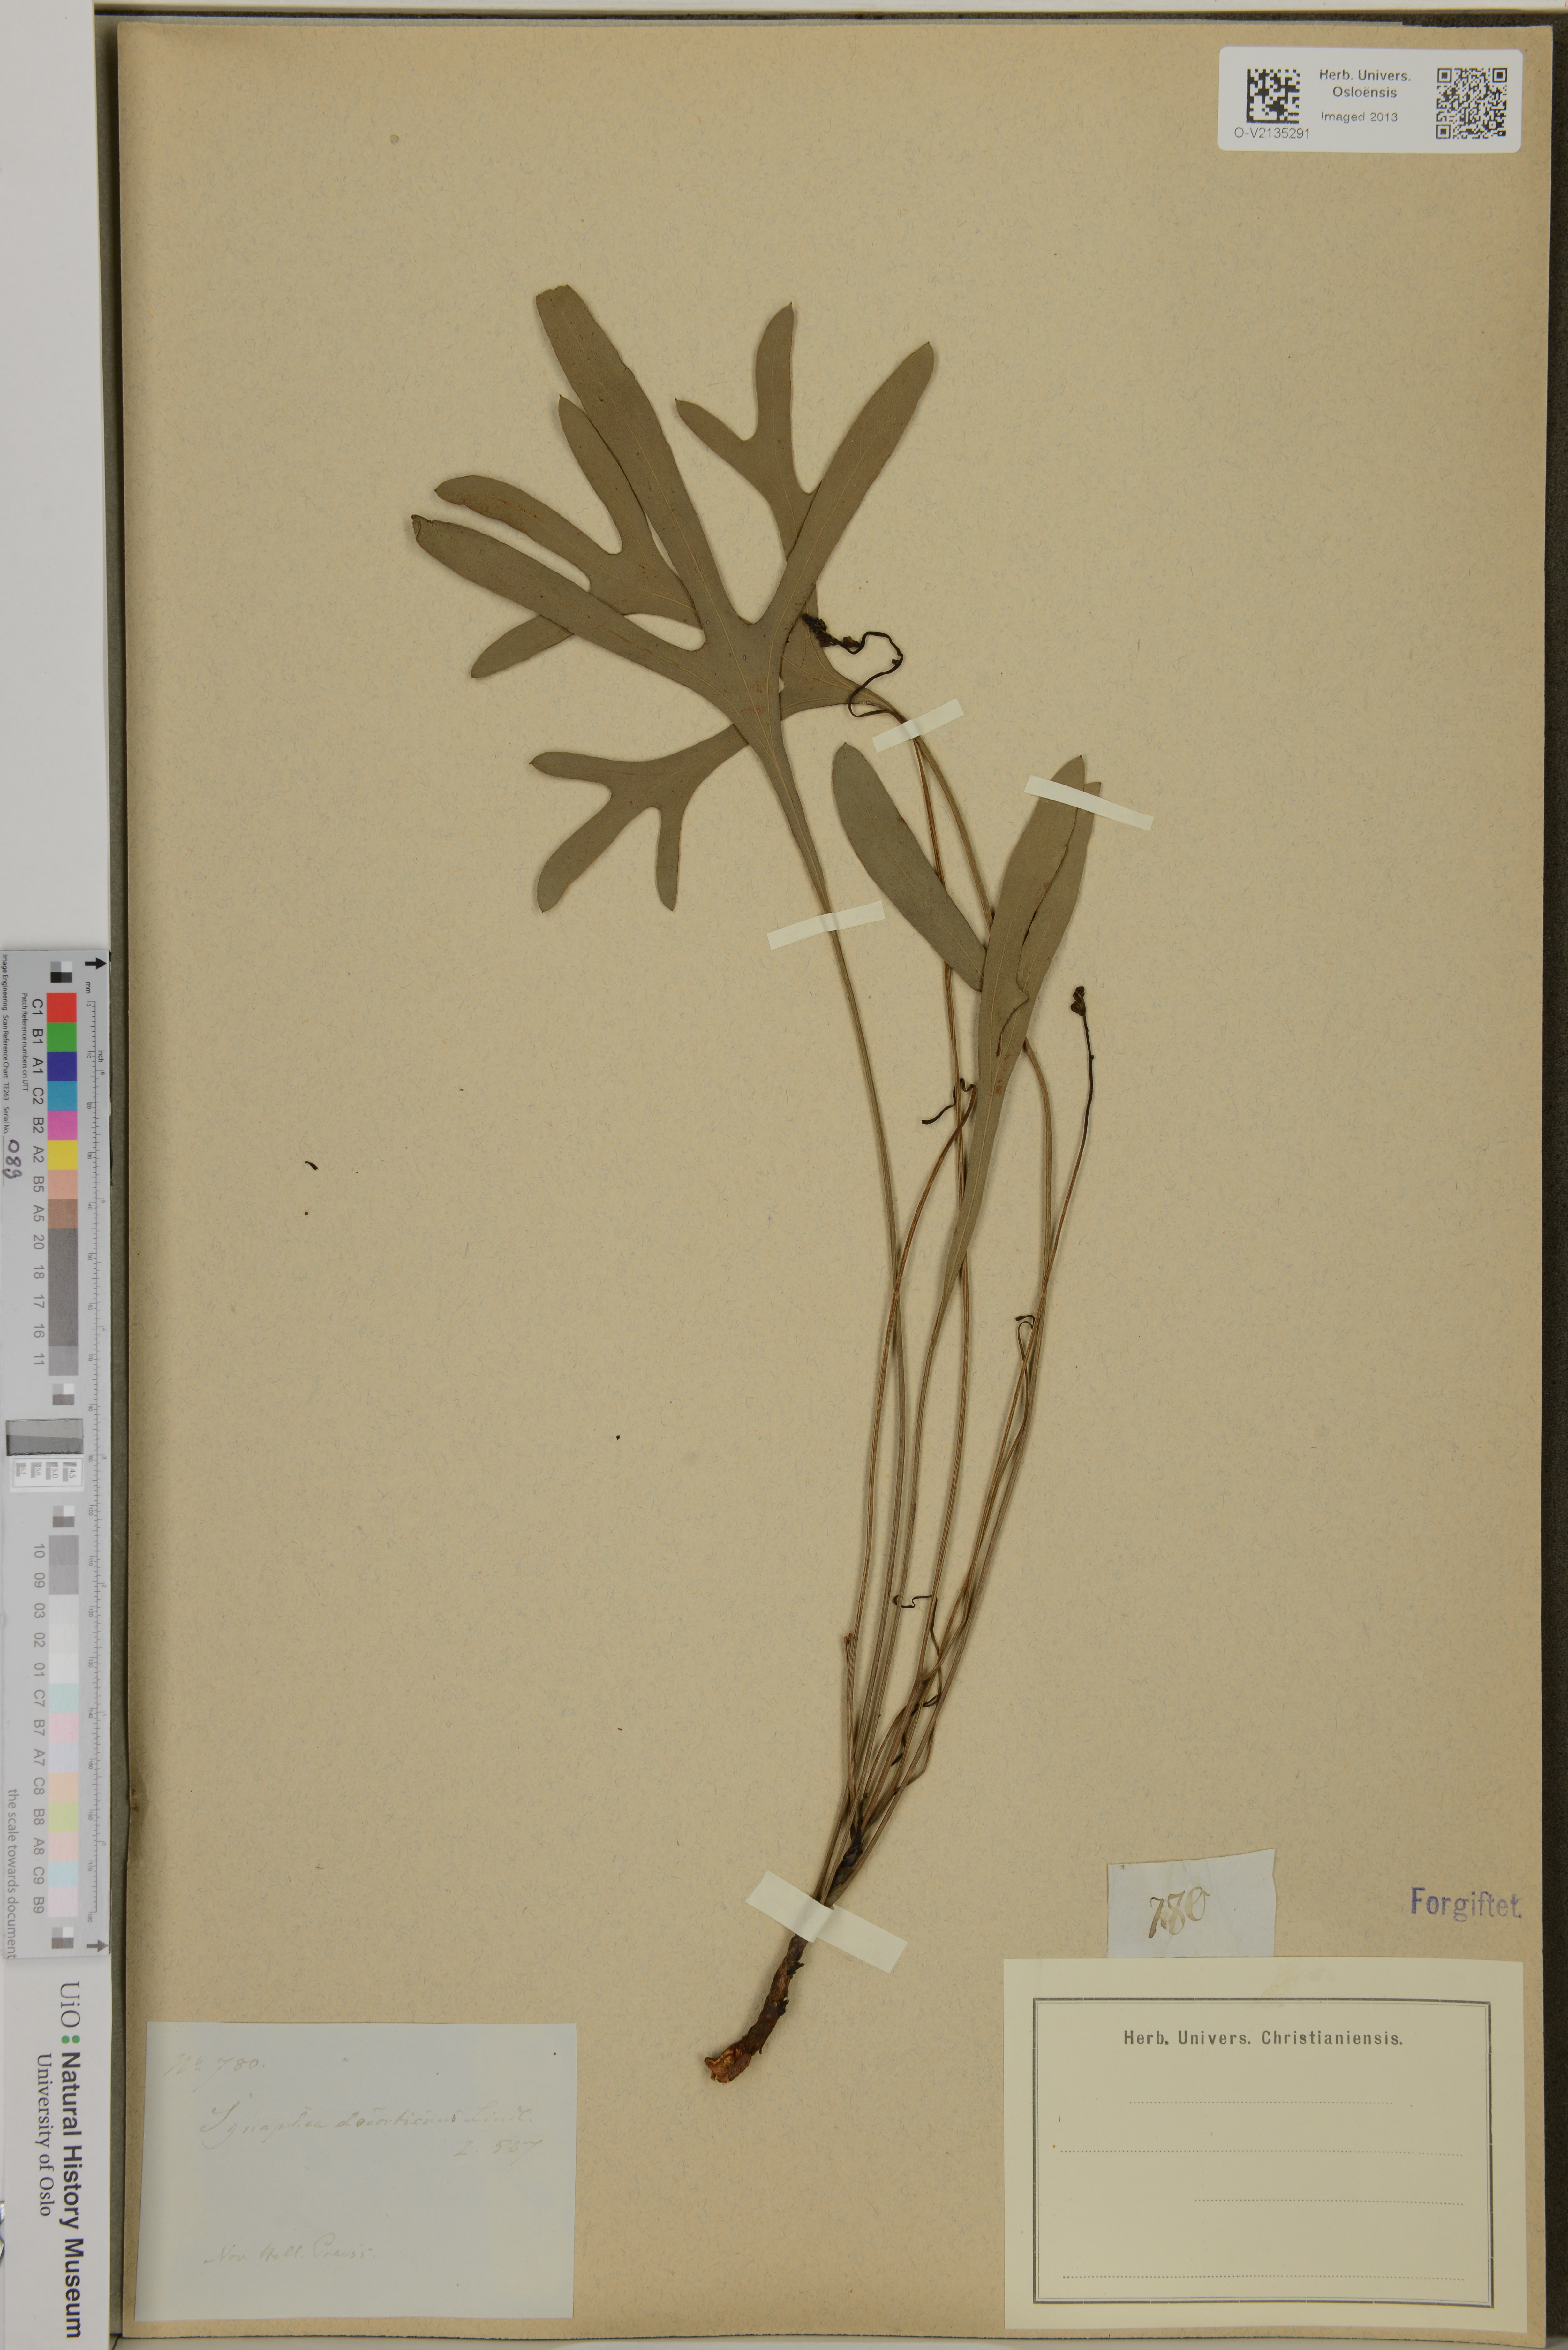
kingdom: Plantae
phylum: Tracheophyta
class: Magnoliopsida
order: Proteales
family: Proteaceae
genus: Synaphea
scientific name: Synaphea decorticans
